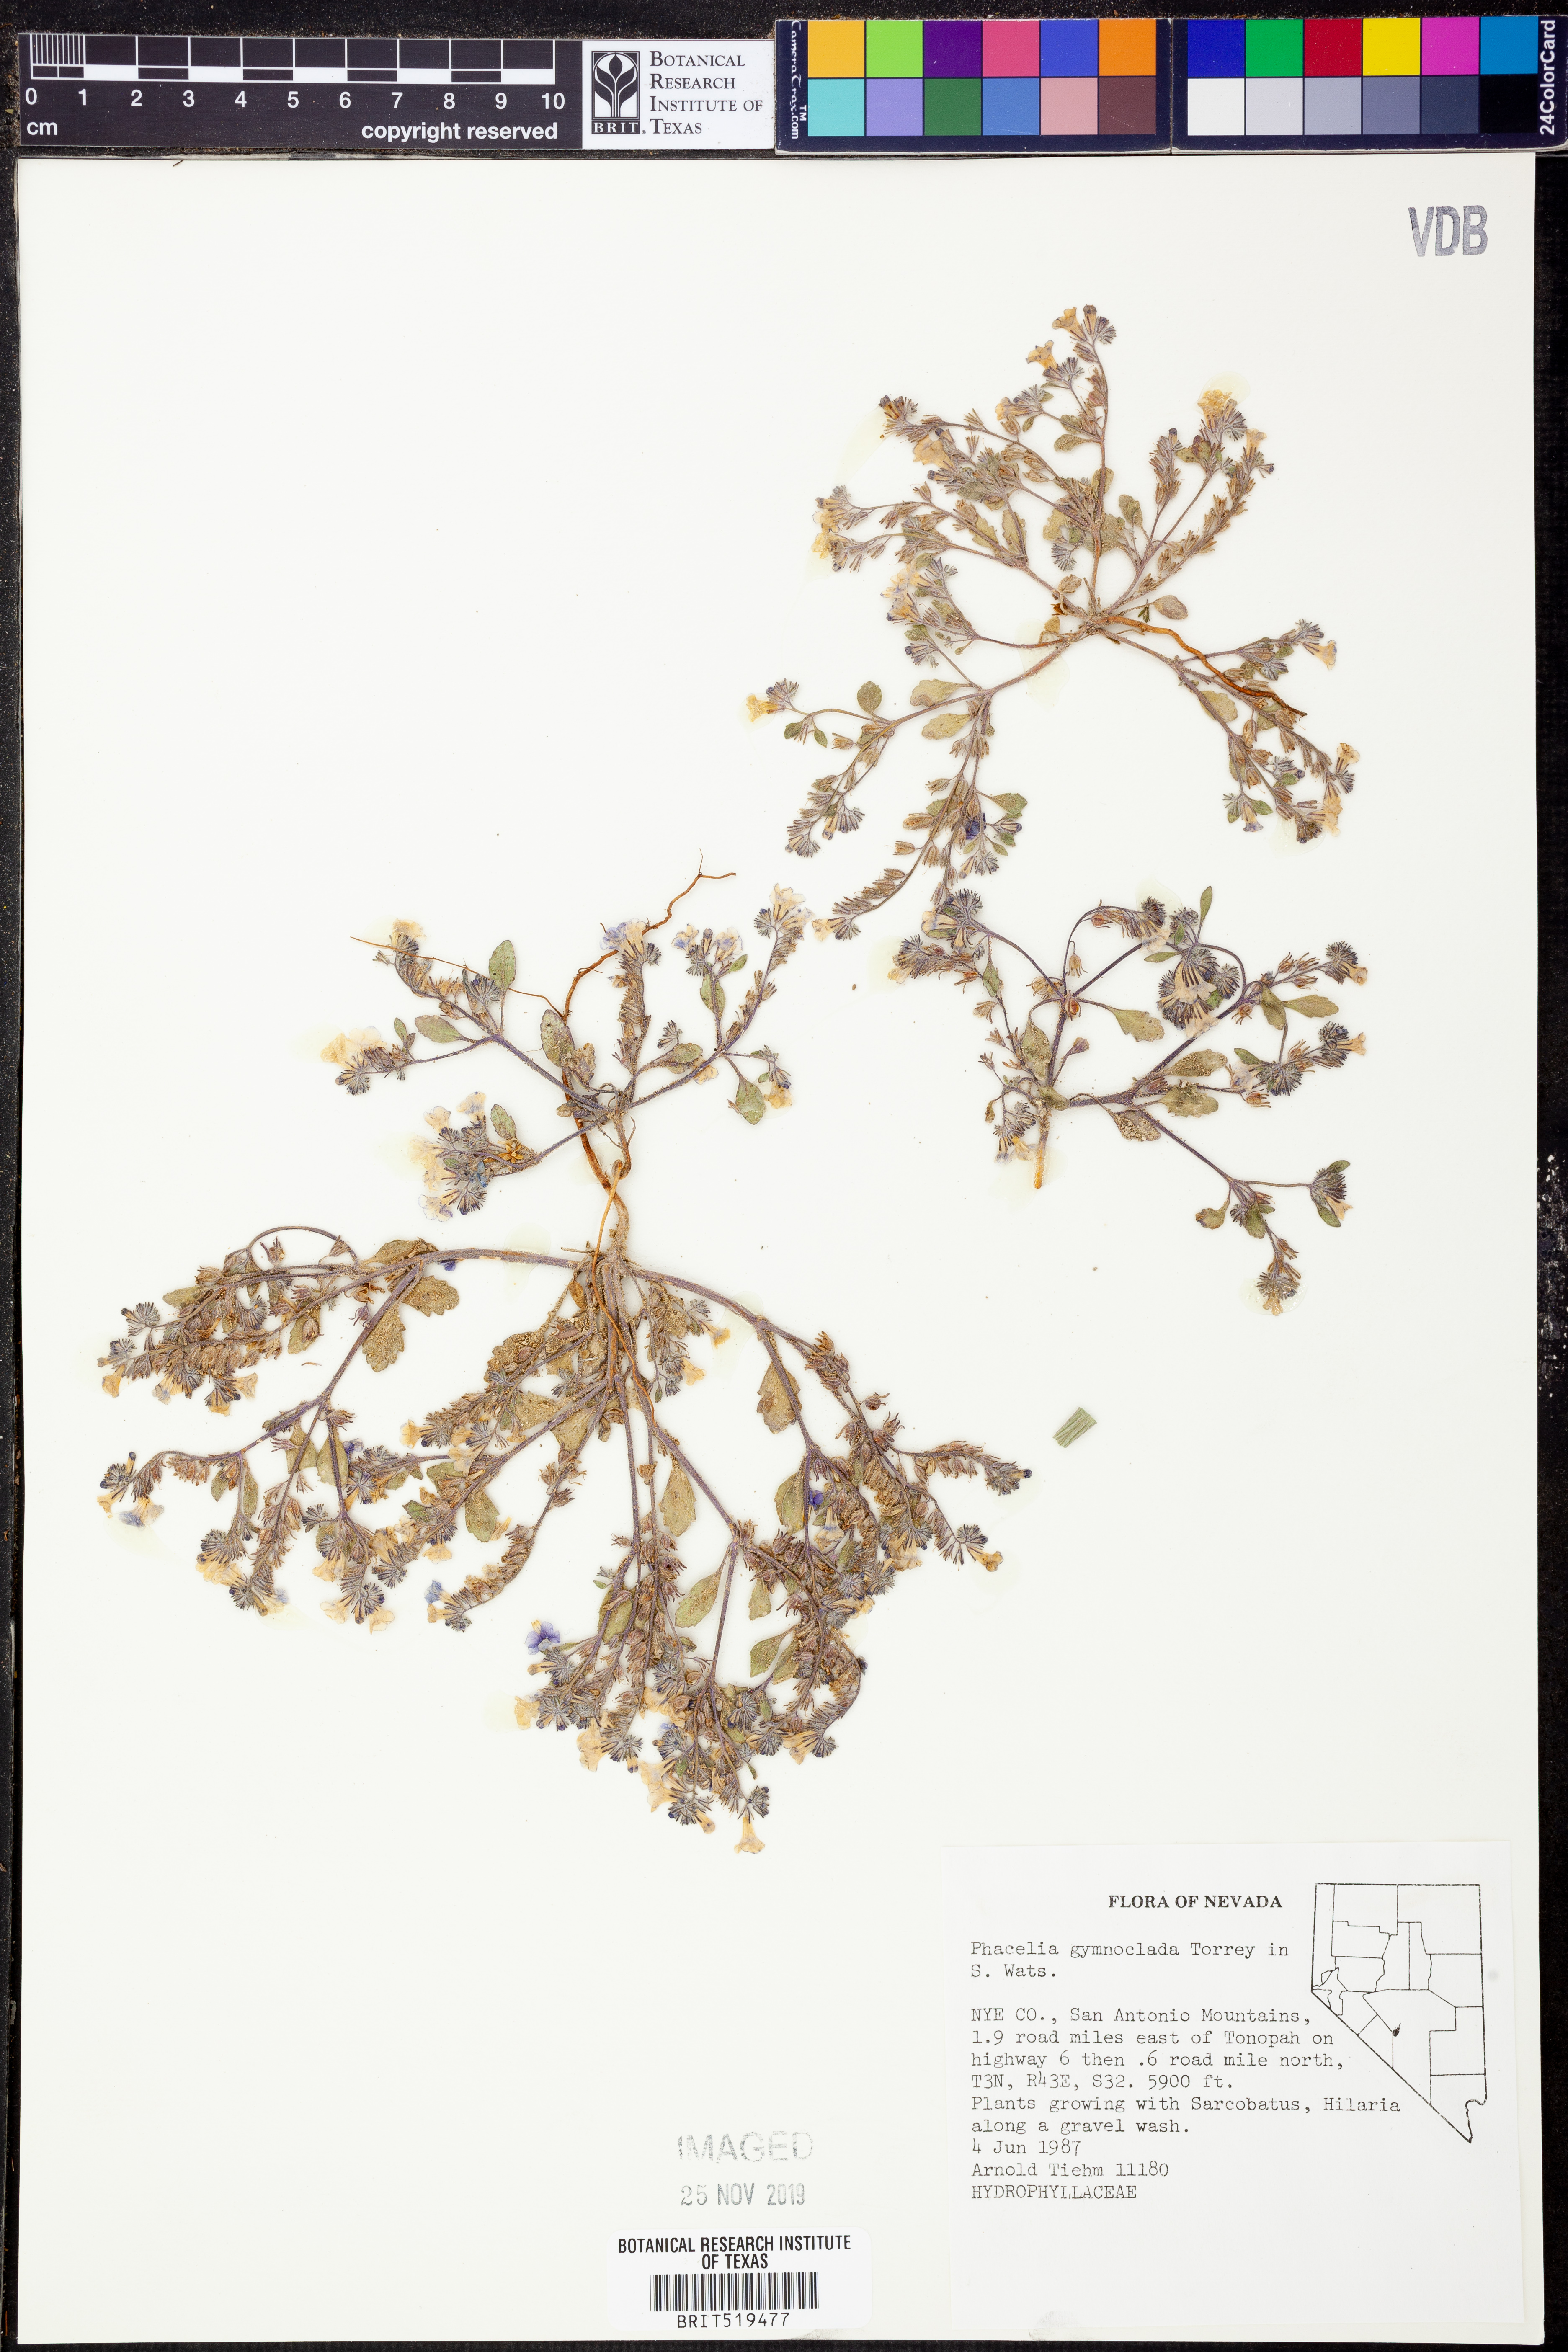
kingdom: Plantae
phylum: Tracheophyta
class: Magnoliopsida
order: Boraginales
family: Hydrophyllaceae
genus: Phacelia
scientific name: Phacelia gymnoclada
